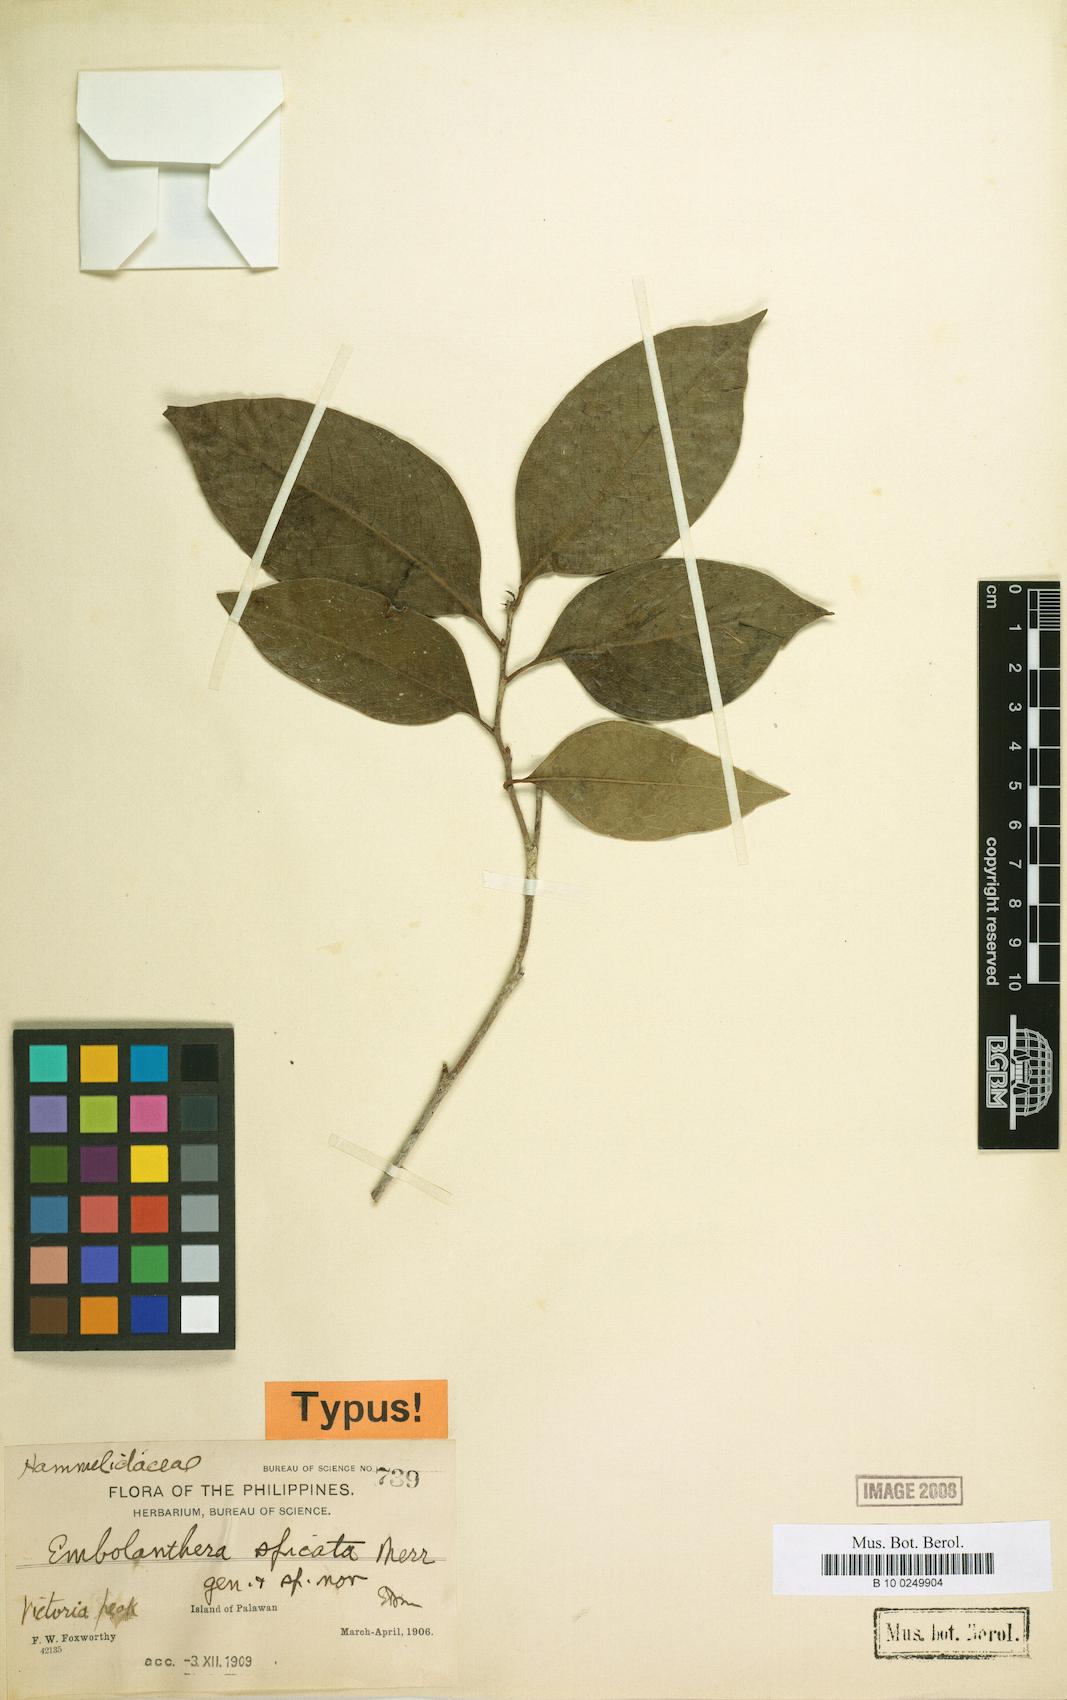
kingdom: Plantae
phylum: Tracheophyta
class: Magnoliopsida
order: Saxifragales
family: Hamamelidaceae
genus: Embolanthera
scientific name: Embolanthera spicata
